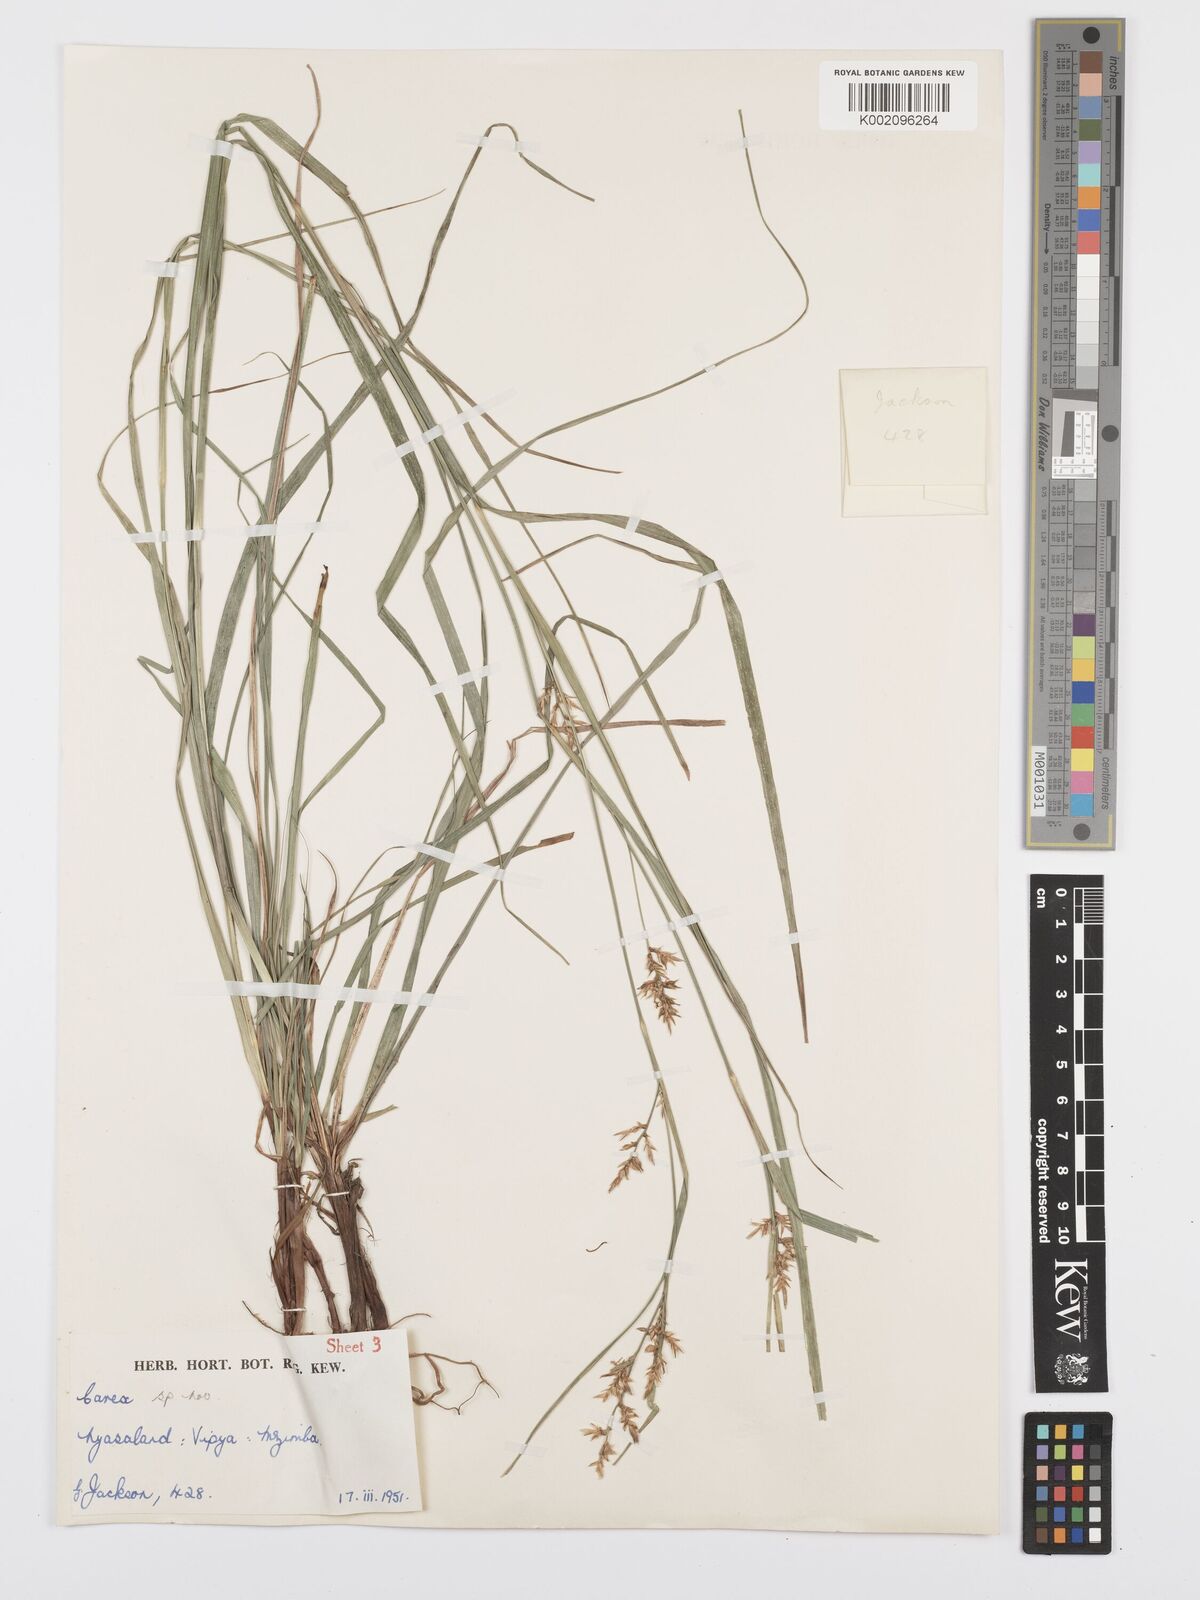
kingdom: Plantae
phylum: Tracheophyta
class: Liliopsida
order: Poales
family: Cyperaceae
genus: Carex
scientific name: Carex spicatopaniculata
